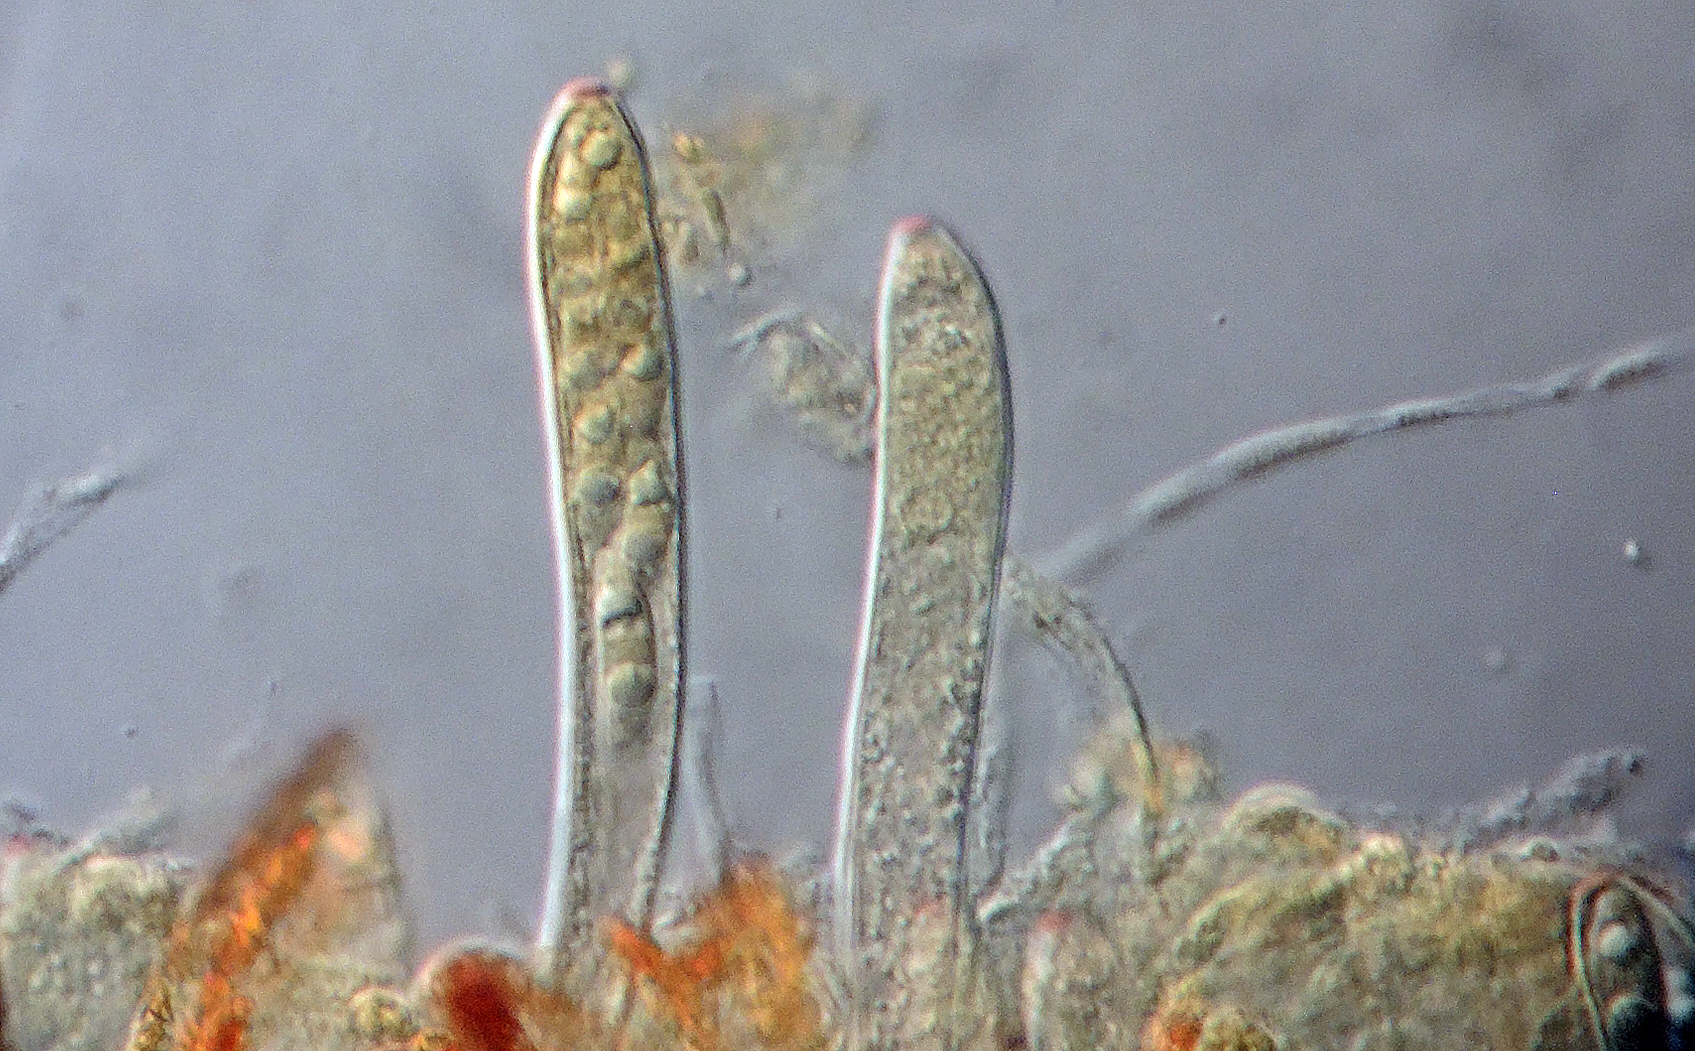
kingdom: Fungi
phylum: Ascomycota
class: Leotiomycetes
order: Helotiales
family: Pezizellaceae
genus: Allophylaria
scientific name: Allophylaria byssacea
